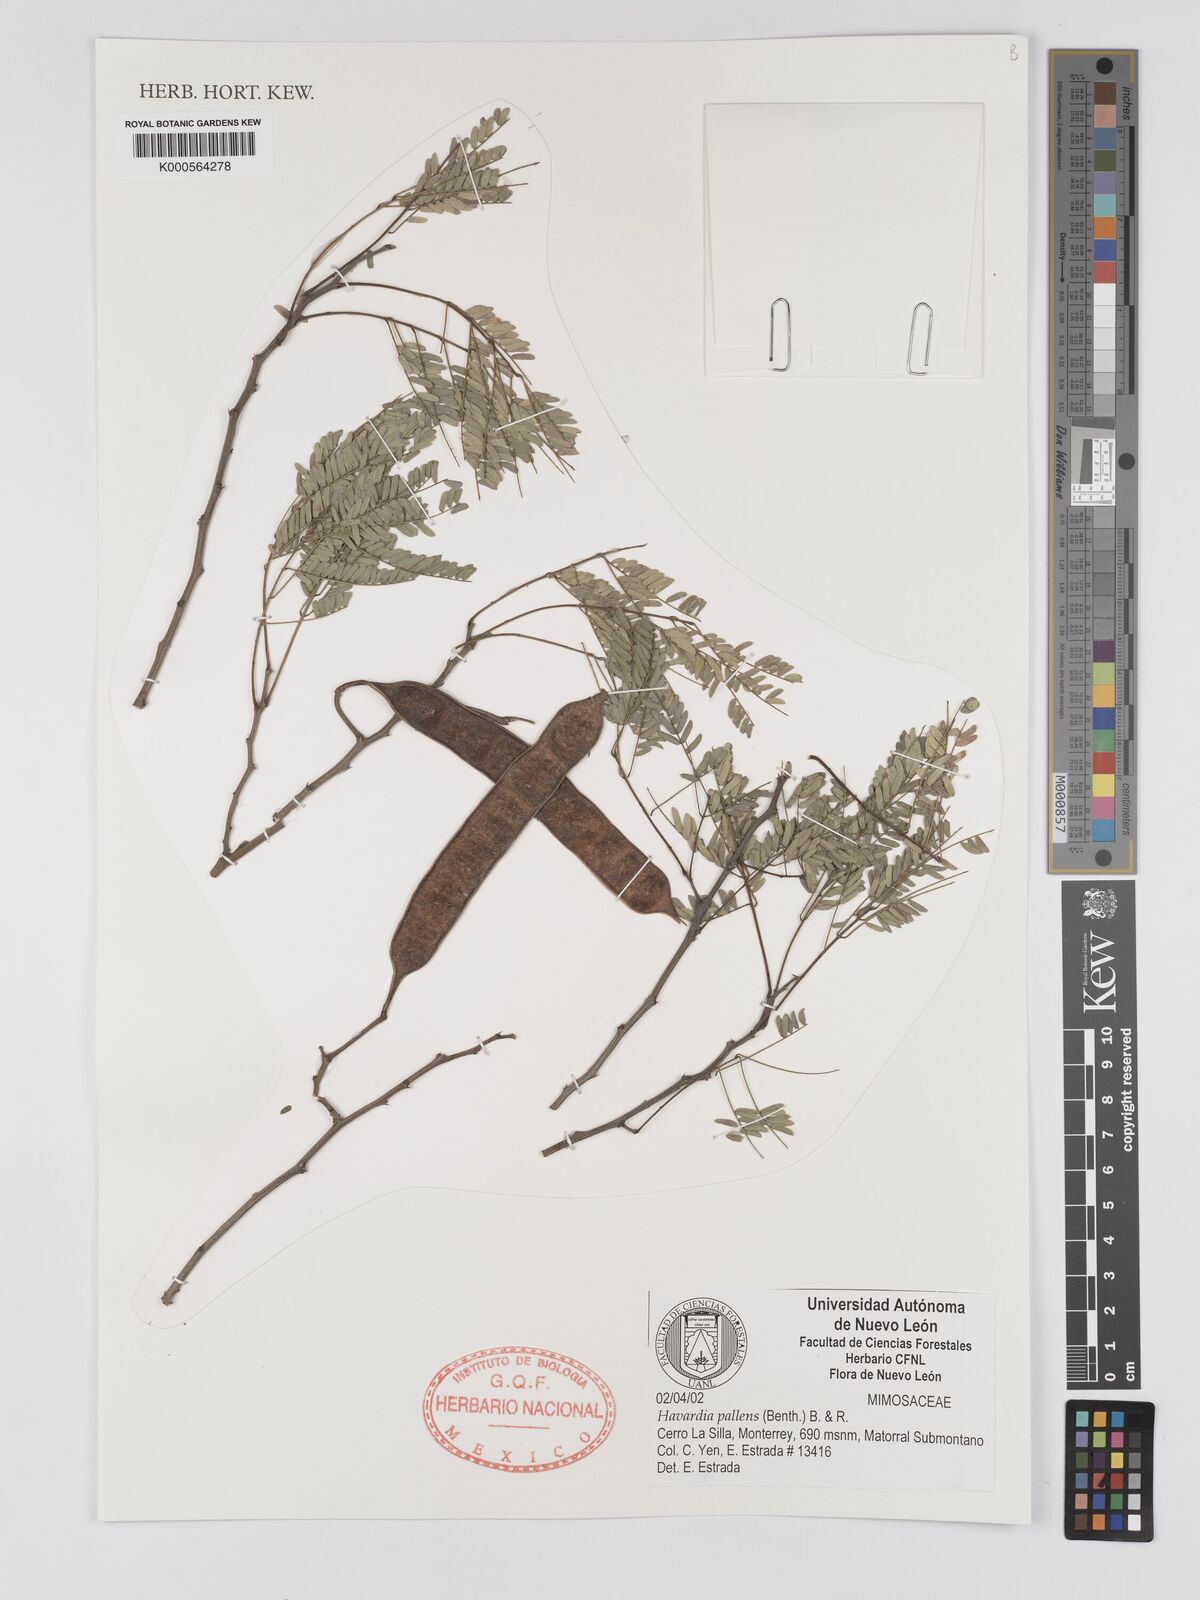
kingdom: Plantae
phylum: Tracheophyta
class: Magnoliopsida
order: Fabales
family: Fabaceae
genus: Havardia
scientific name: Havardia pallens
